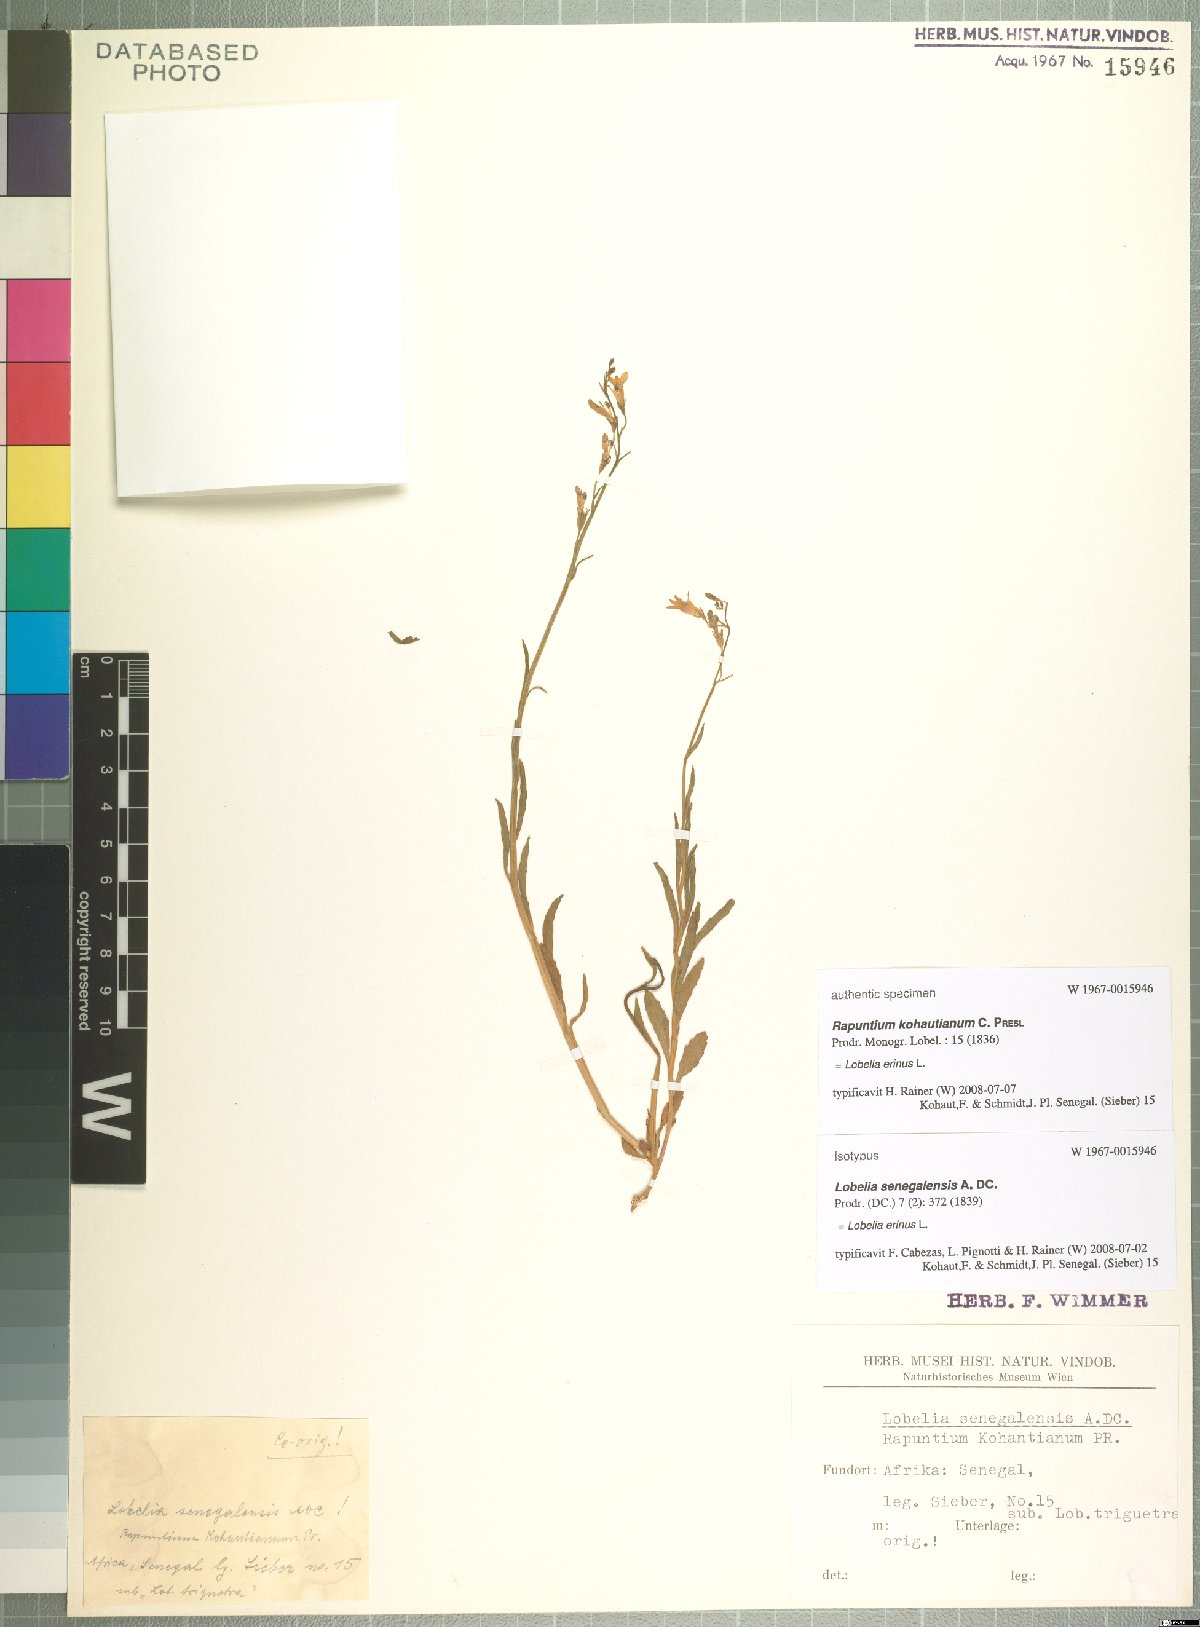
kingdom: Plantae
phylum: Tracheophyta
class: Magnoliopsida
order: Asterales
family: Campanulaceae
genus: Lobelia
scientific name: Lobelia erinus
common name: Edging lobelia
